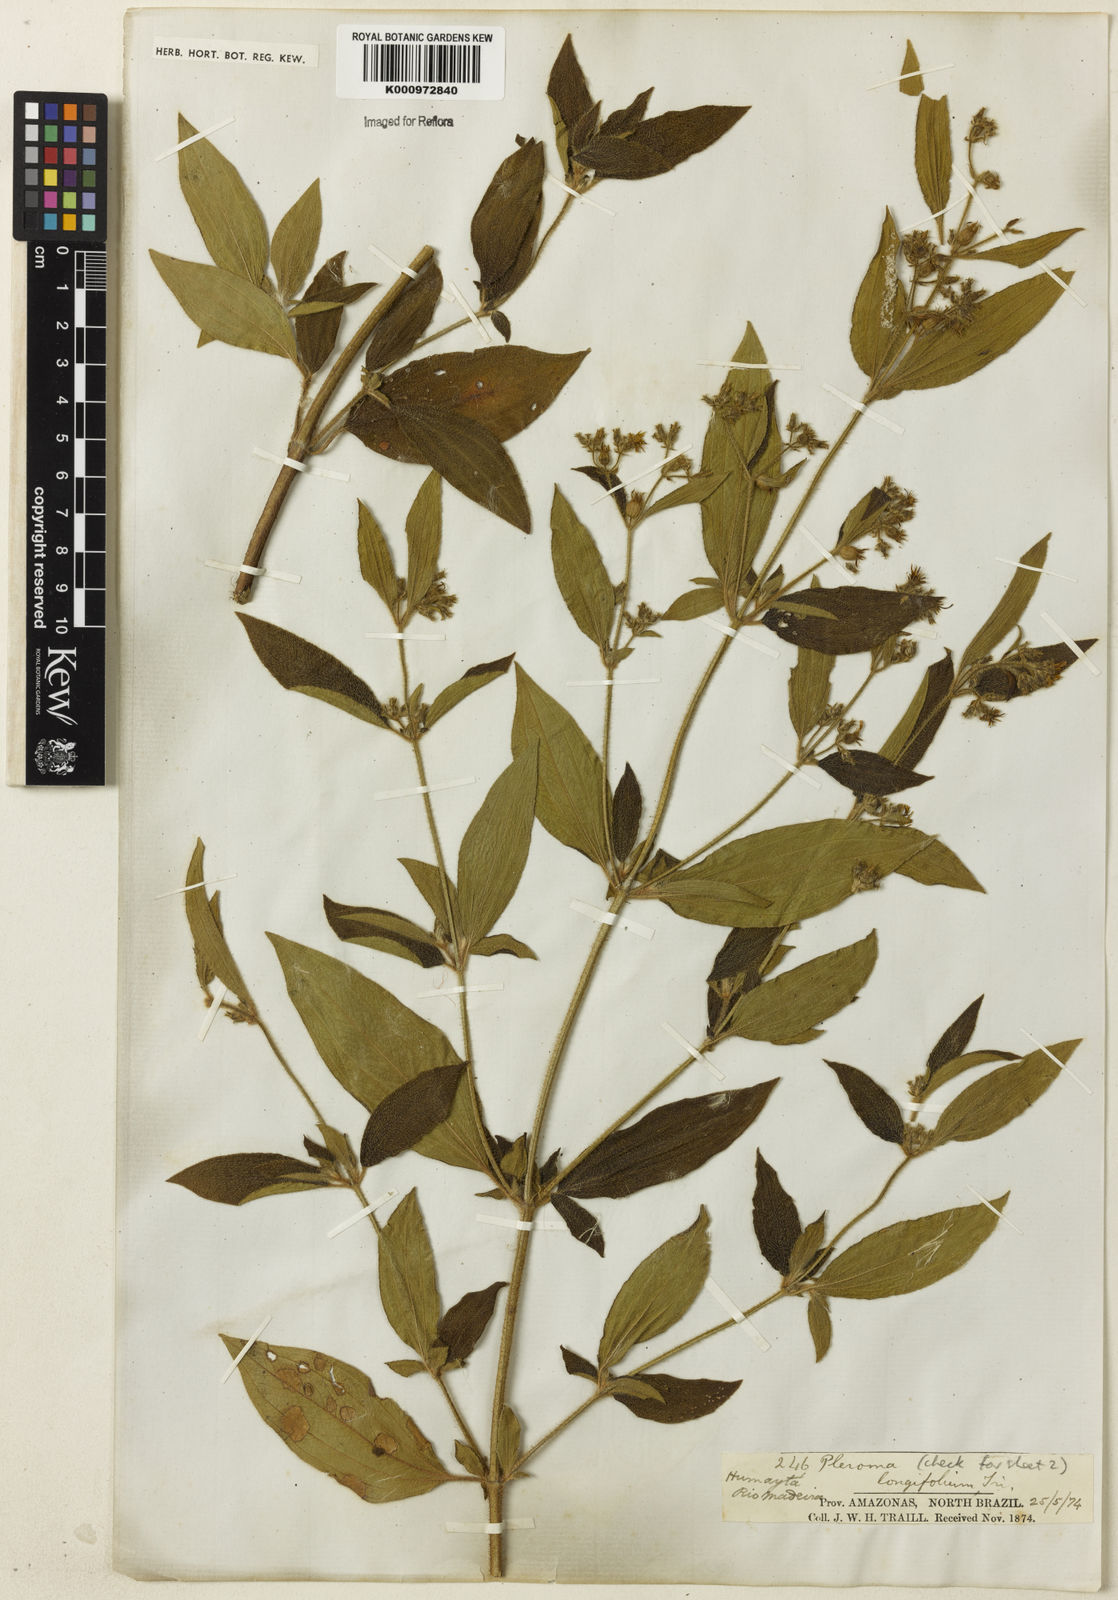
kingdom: Plantae
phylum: Tracheophyta
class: Magnoliopsida
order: Myrtales
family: Melastomataceae
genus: Chaetogastra
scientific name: Chaetogastra longifolia
